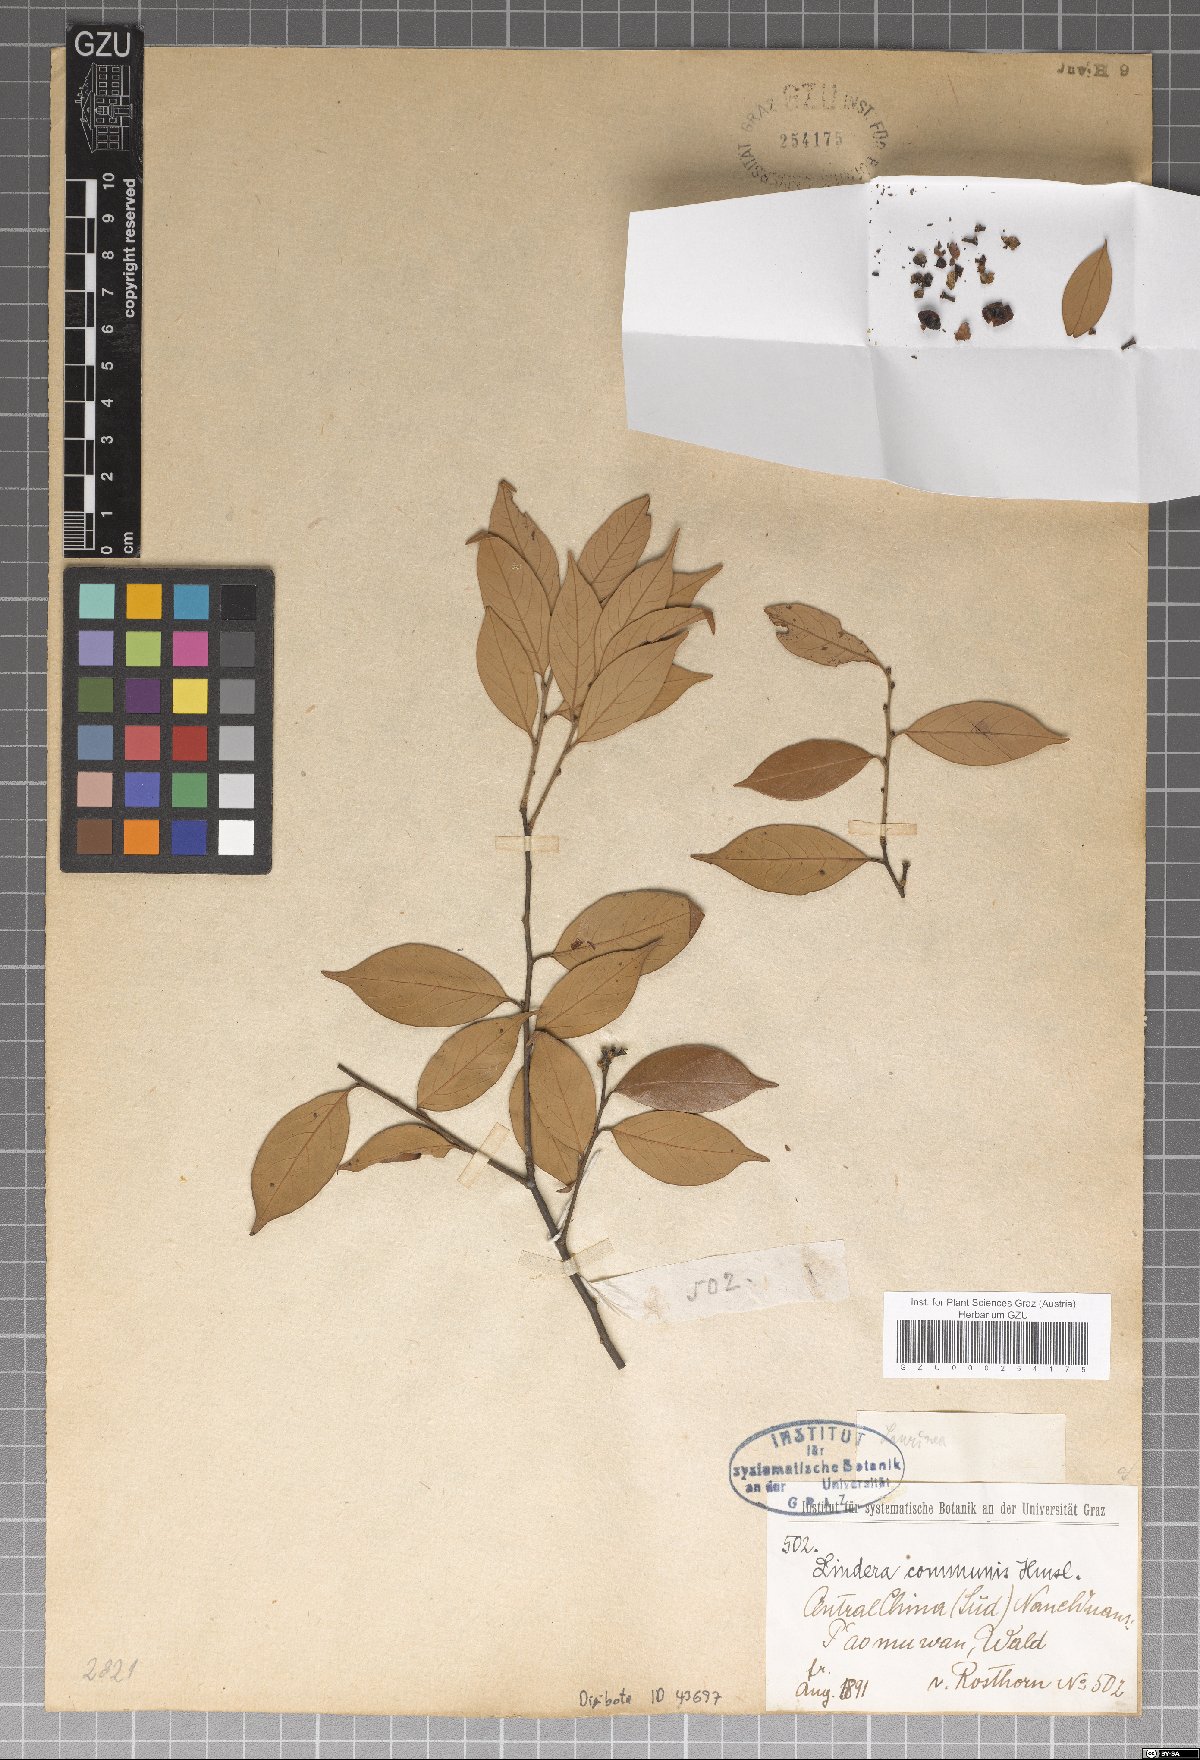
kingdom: Plantae
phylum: Tracheophyta
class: Magnoliopsida
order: Laurales
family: Lauraceae
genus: Lindera
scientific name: Lindera communis
